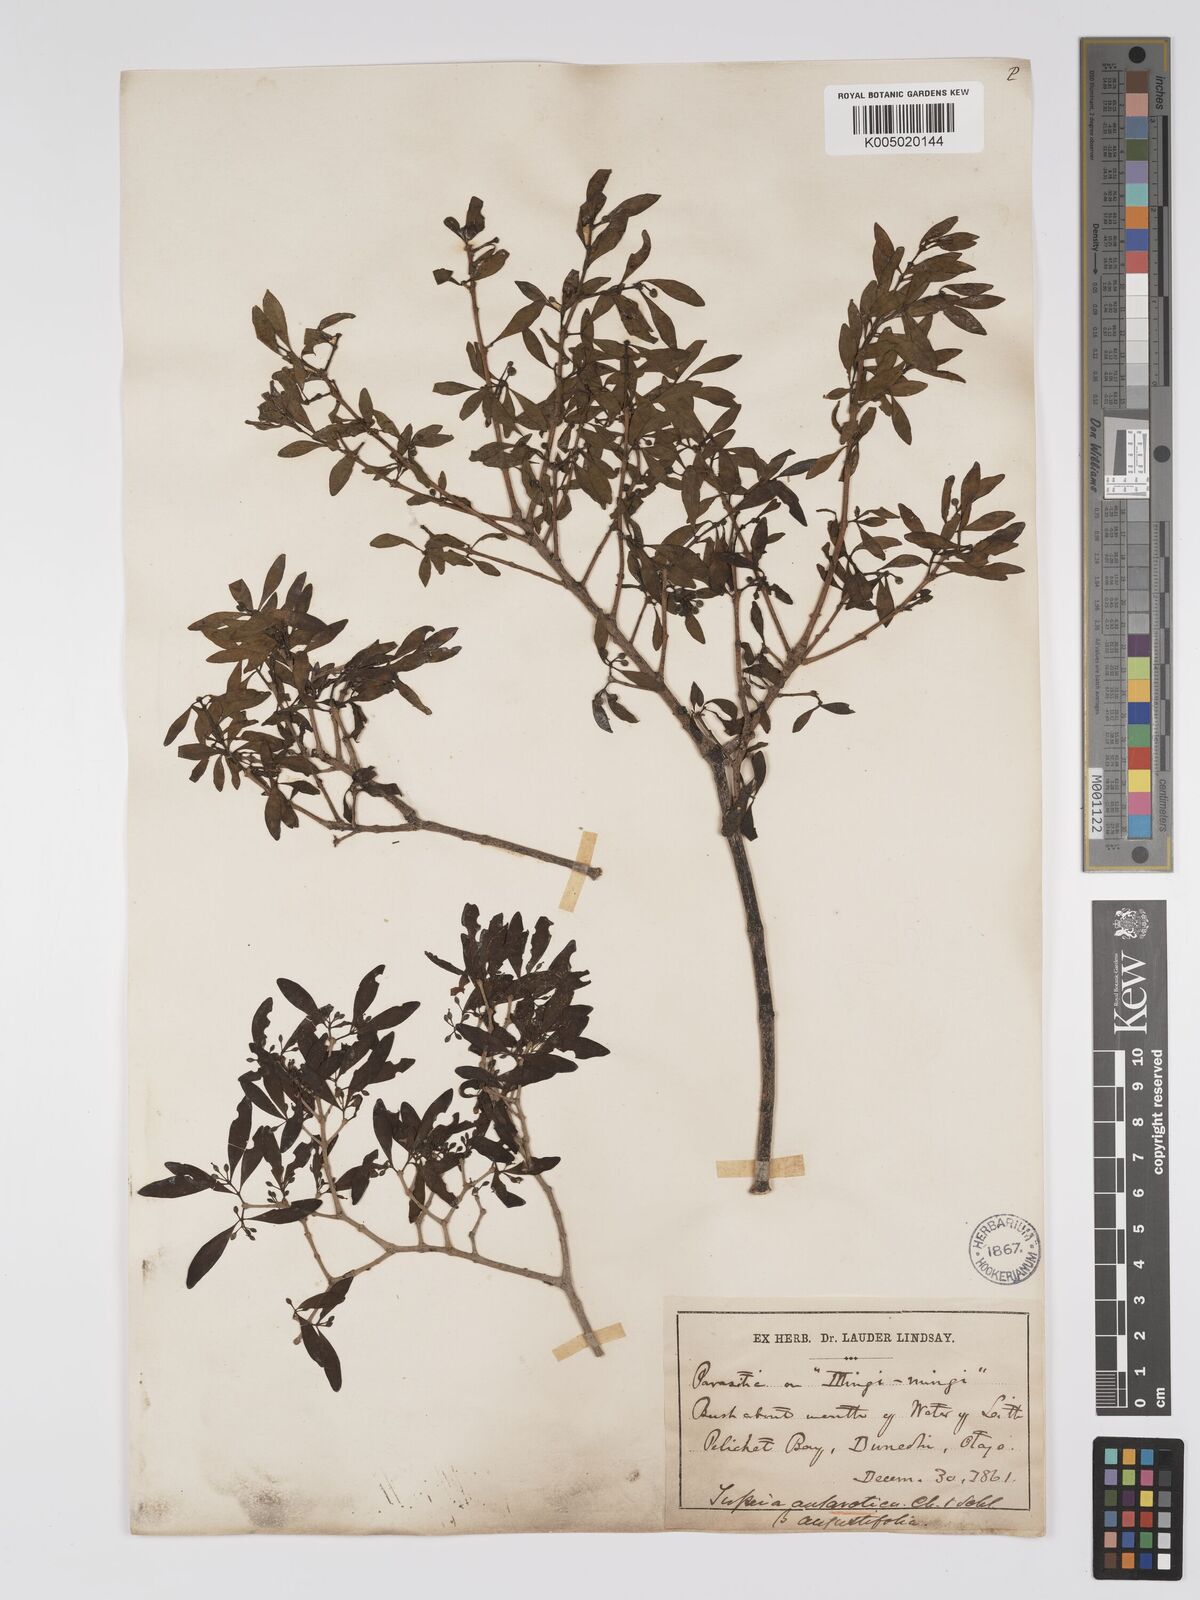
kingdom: Plantae
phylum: Tracheophyta
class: Magnoliopsida
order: Santalales
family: Loranthaceae
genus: Tupeia
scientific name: Tupeia antarctica
